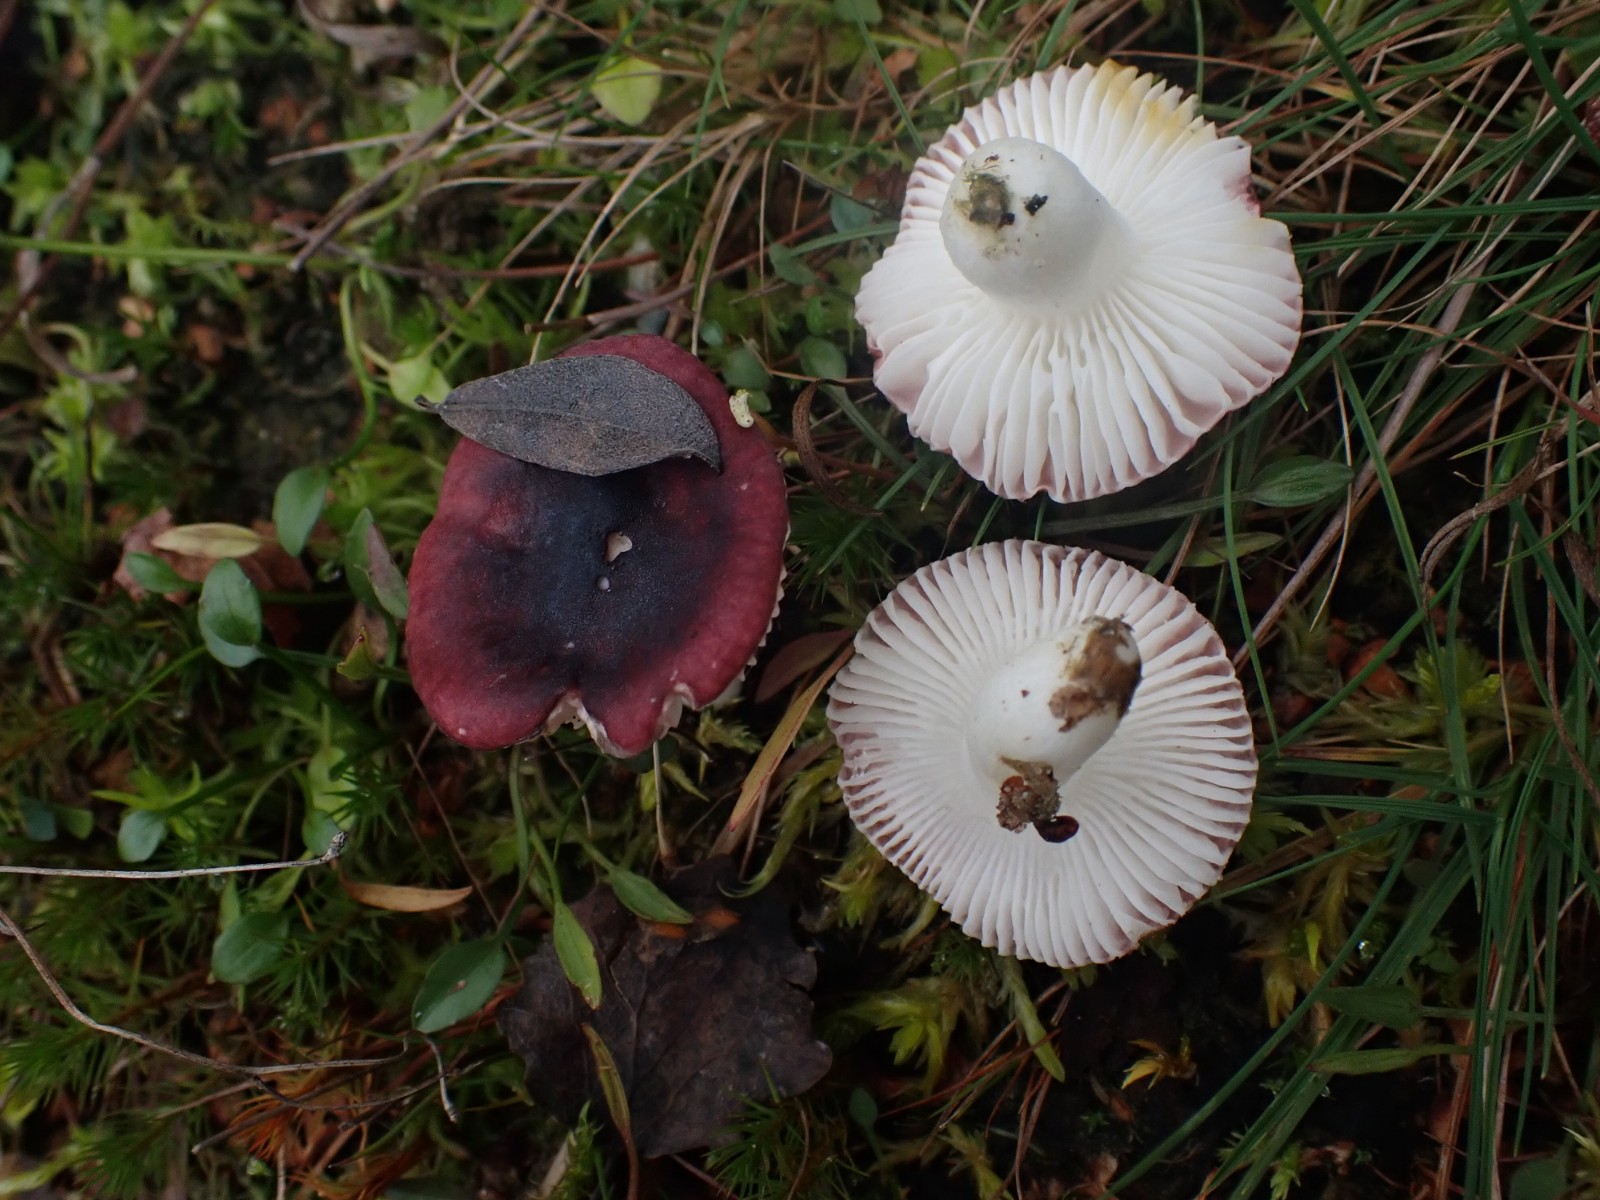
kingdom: Fungi
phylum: Basidiomycota
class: Agaricomycetes
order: Russulales
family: Russulaceae
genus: Russula
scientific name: Russula laccata
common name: klit-skørhat
